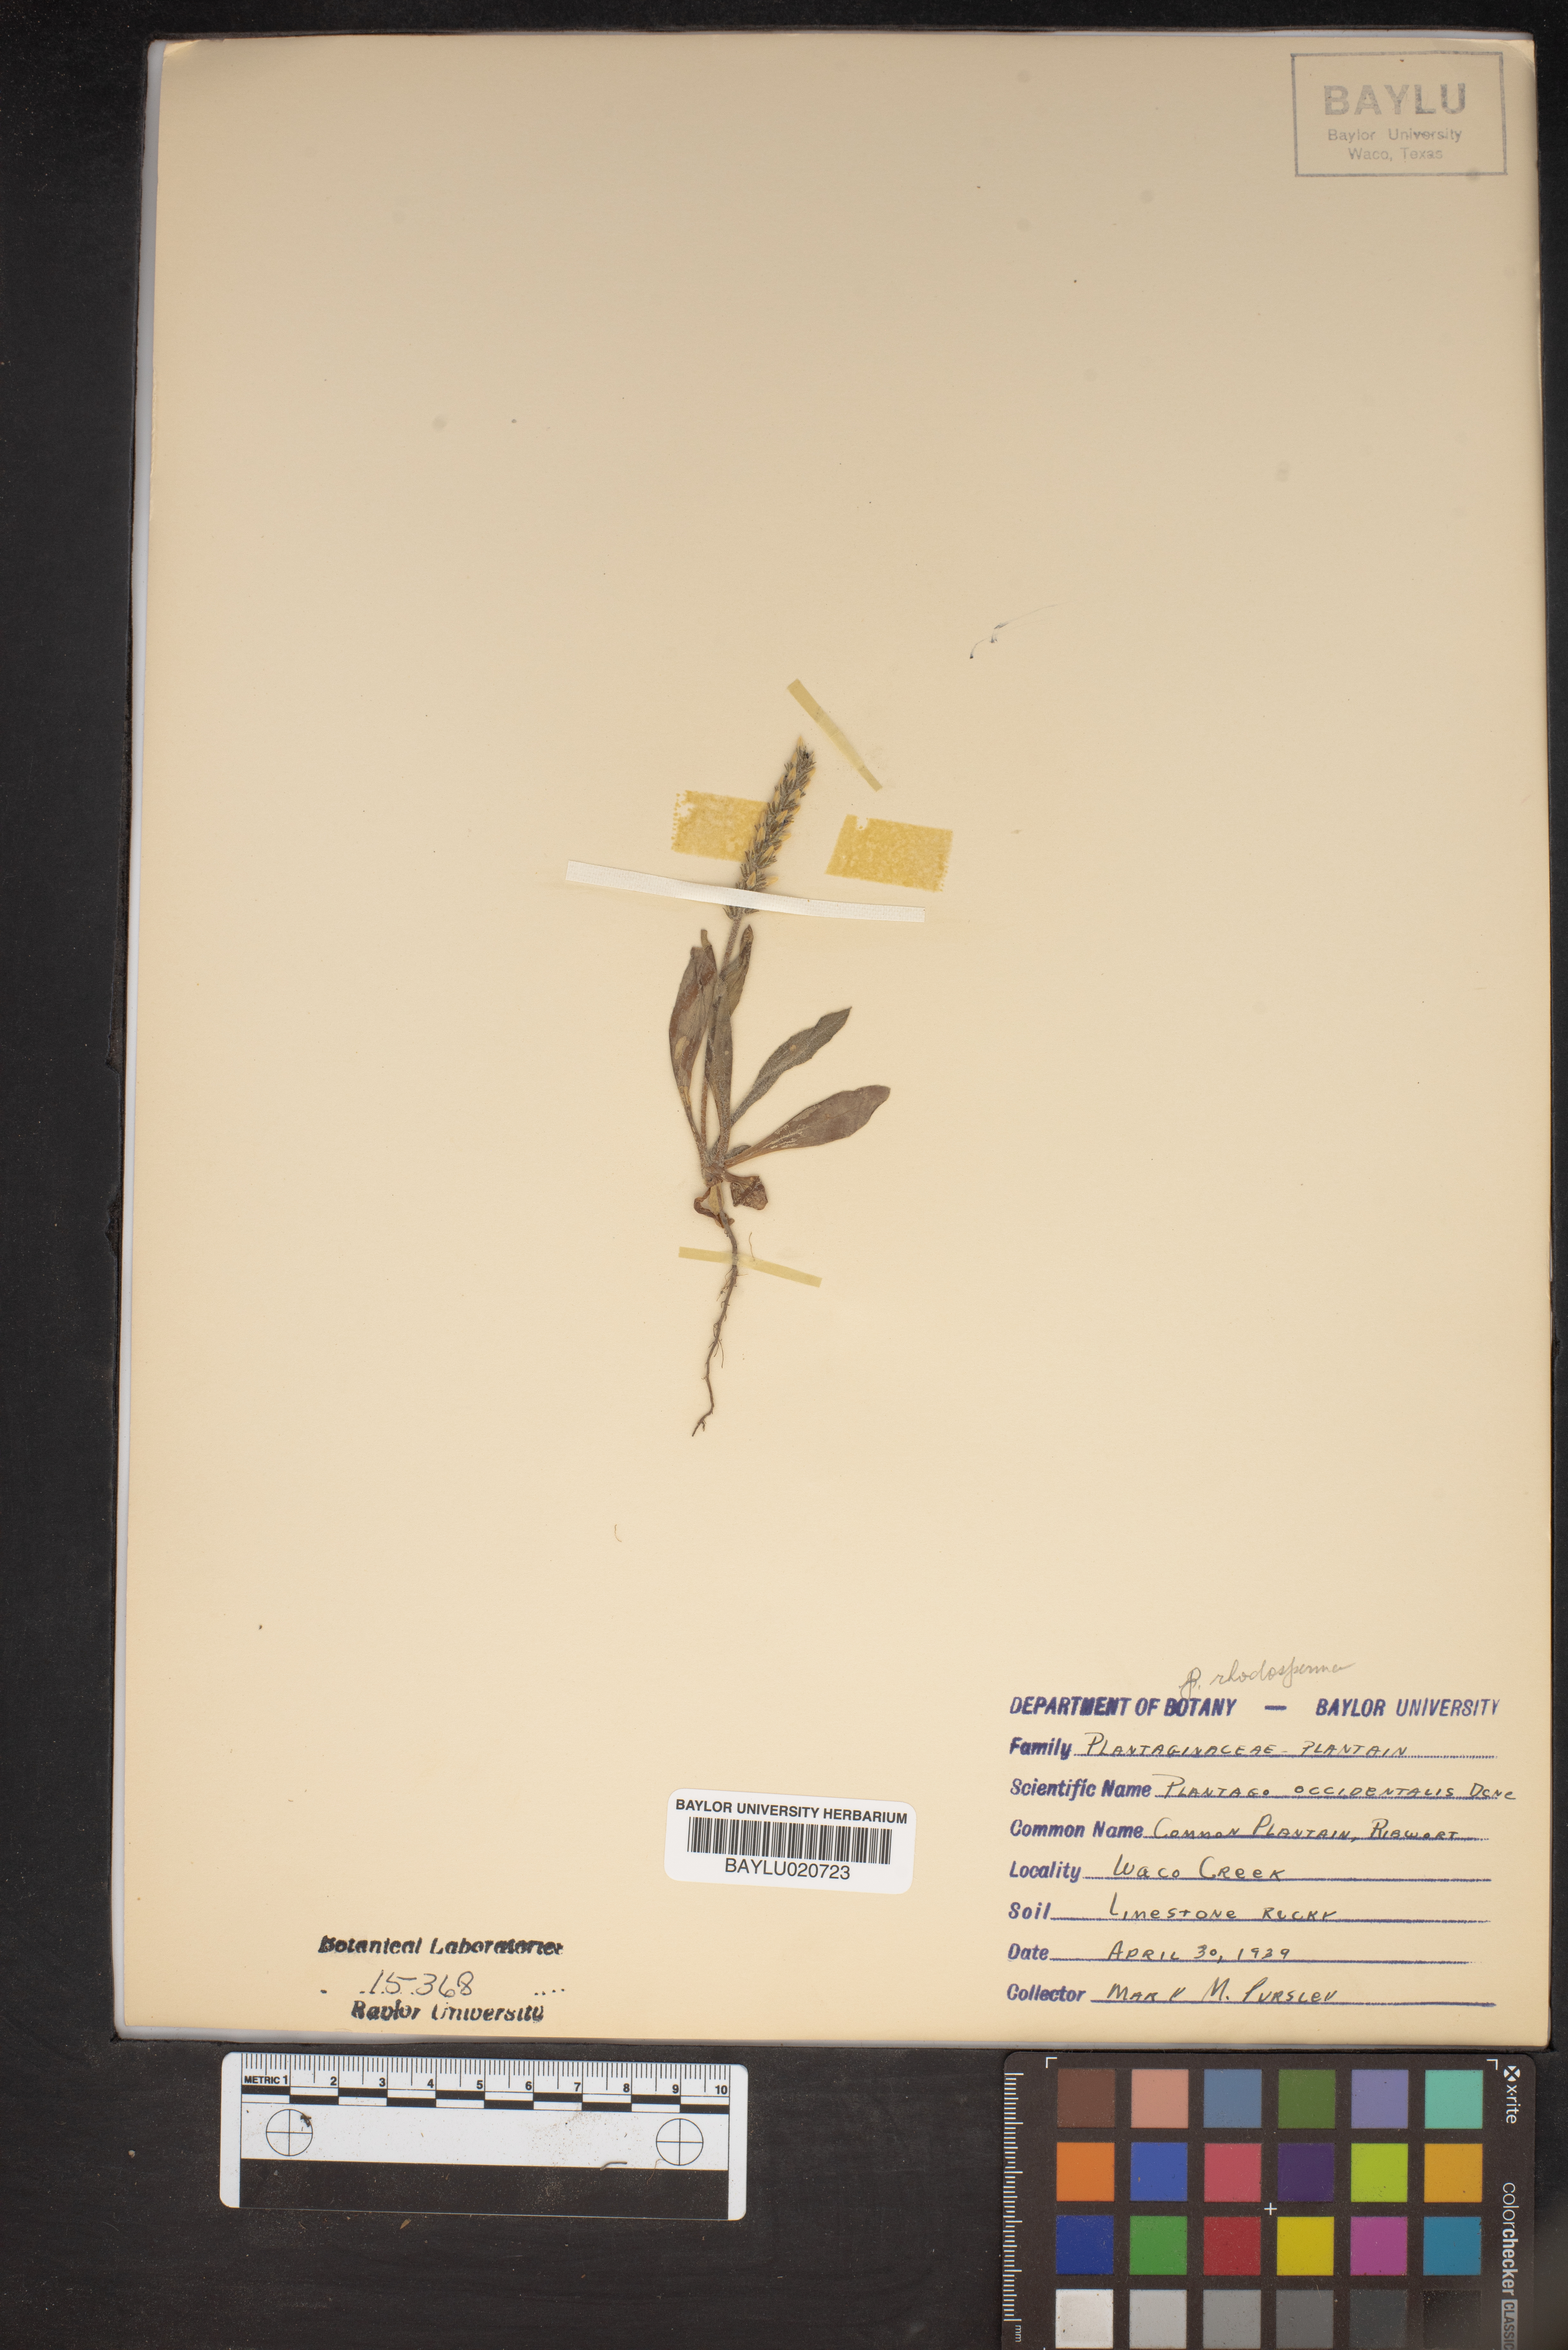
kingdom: Plantae
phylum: Tracheophyta
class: Magnoliopsida
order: Lamiales
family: Plantaginaceae
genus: Plantago
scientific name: Plantago myosuros
